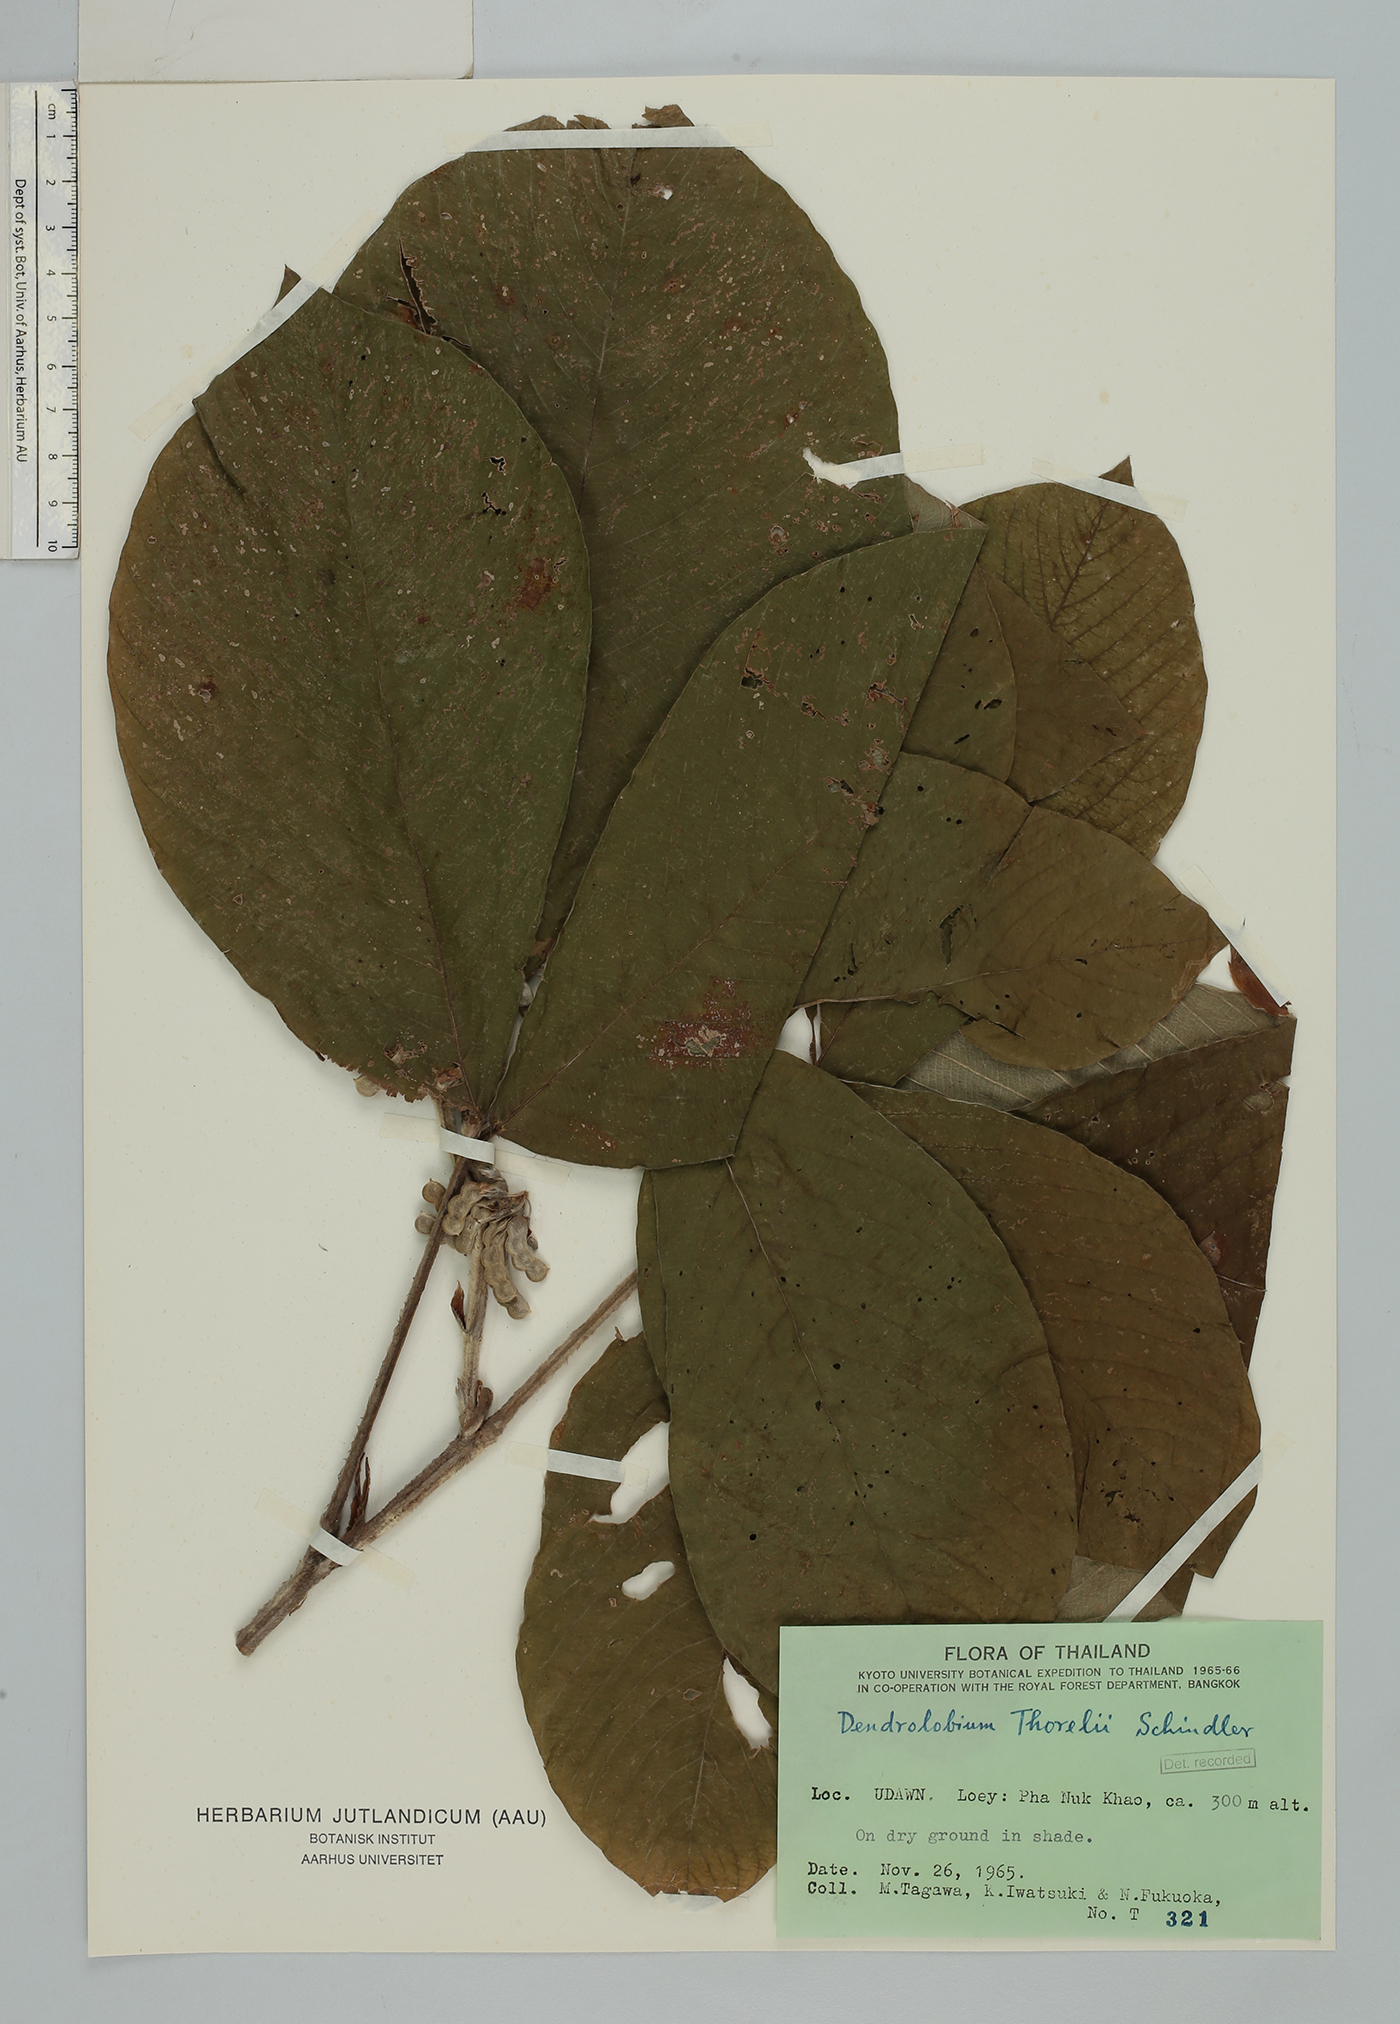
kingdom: Plantae
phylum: Tracheophyta
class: Magnoliopsida
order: Fabales
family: Fabaceae
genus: Dendrolobium
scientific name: Dendrolobium thorelii
